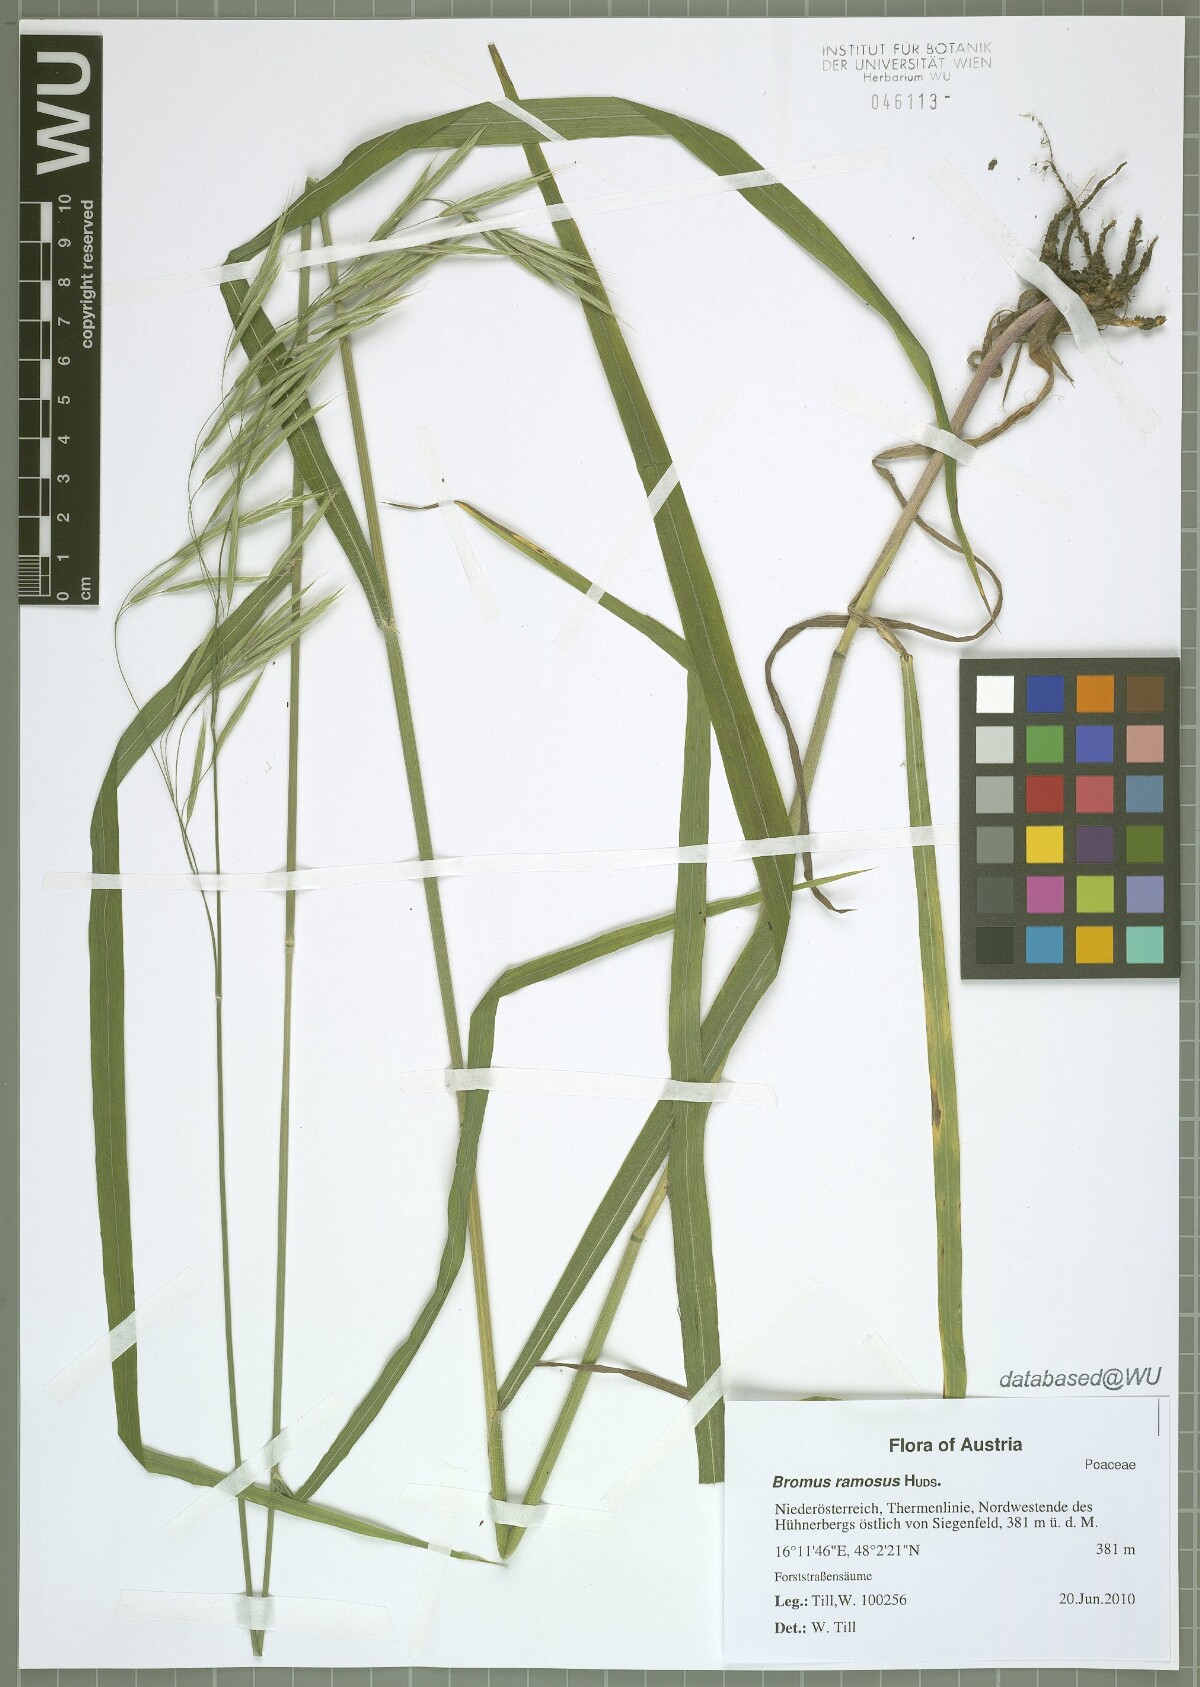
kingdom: Plantae
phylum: Tracheophyta
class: Liliopsida
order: Poales
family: Poaceae
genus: Bromus
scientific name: Bromus ramosus
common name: Hairy brome
